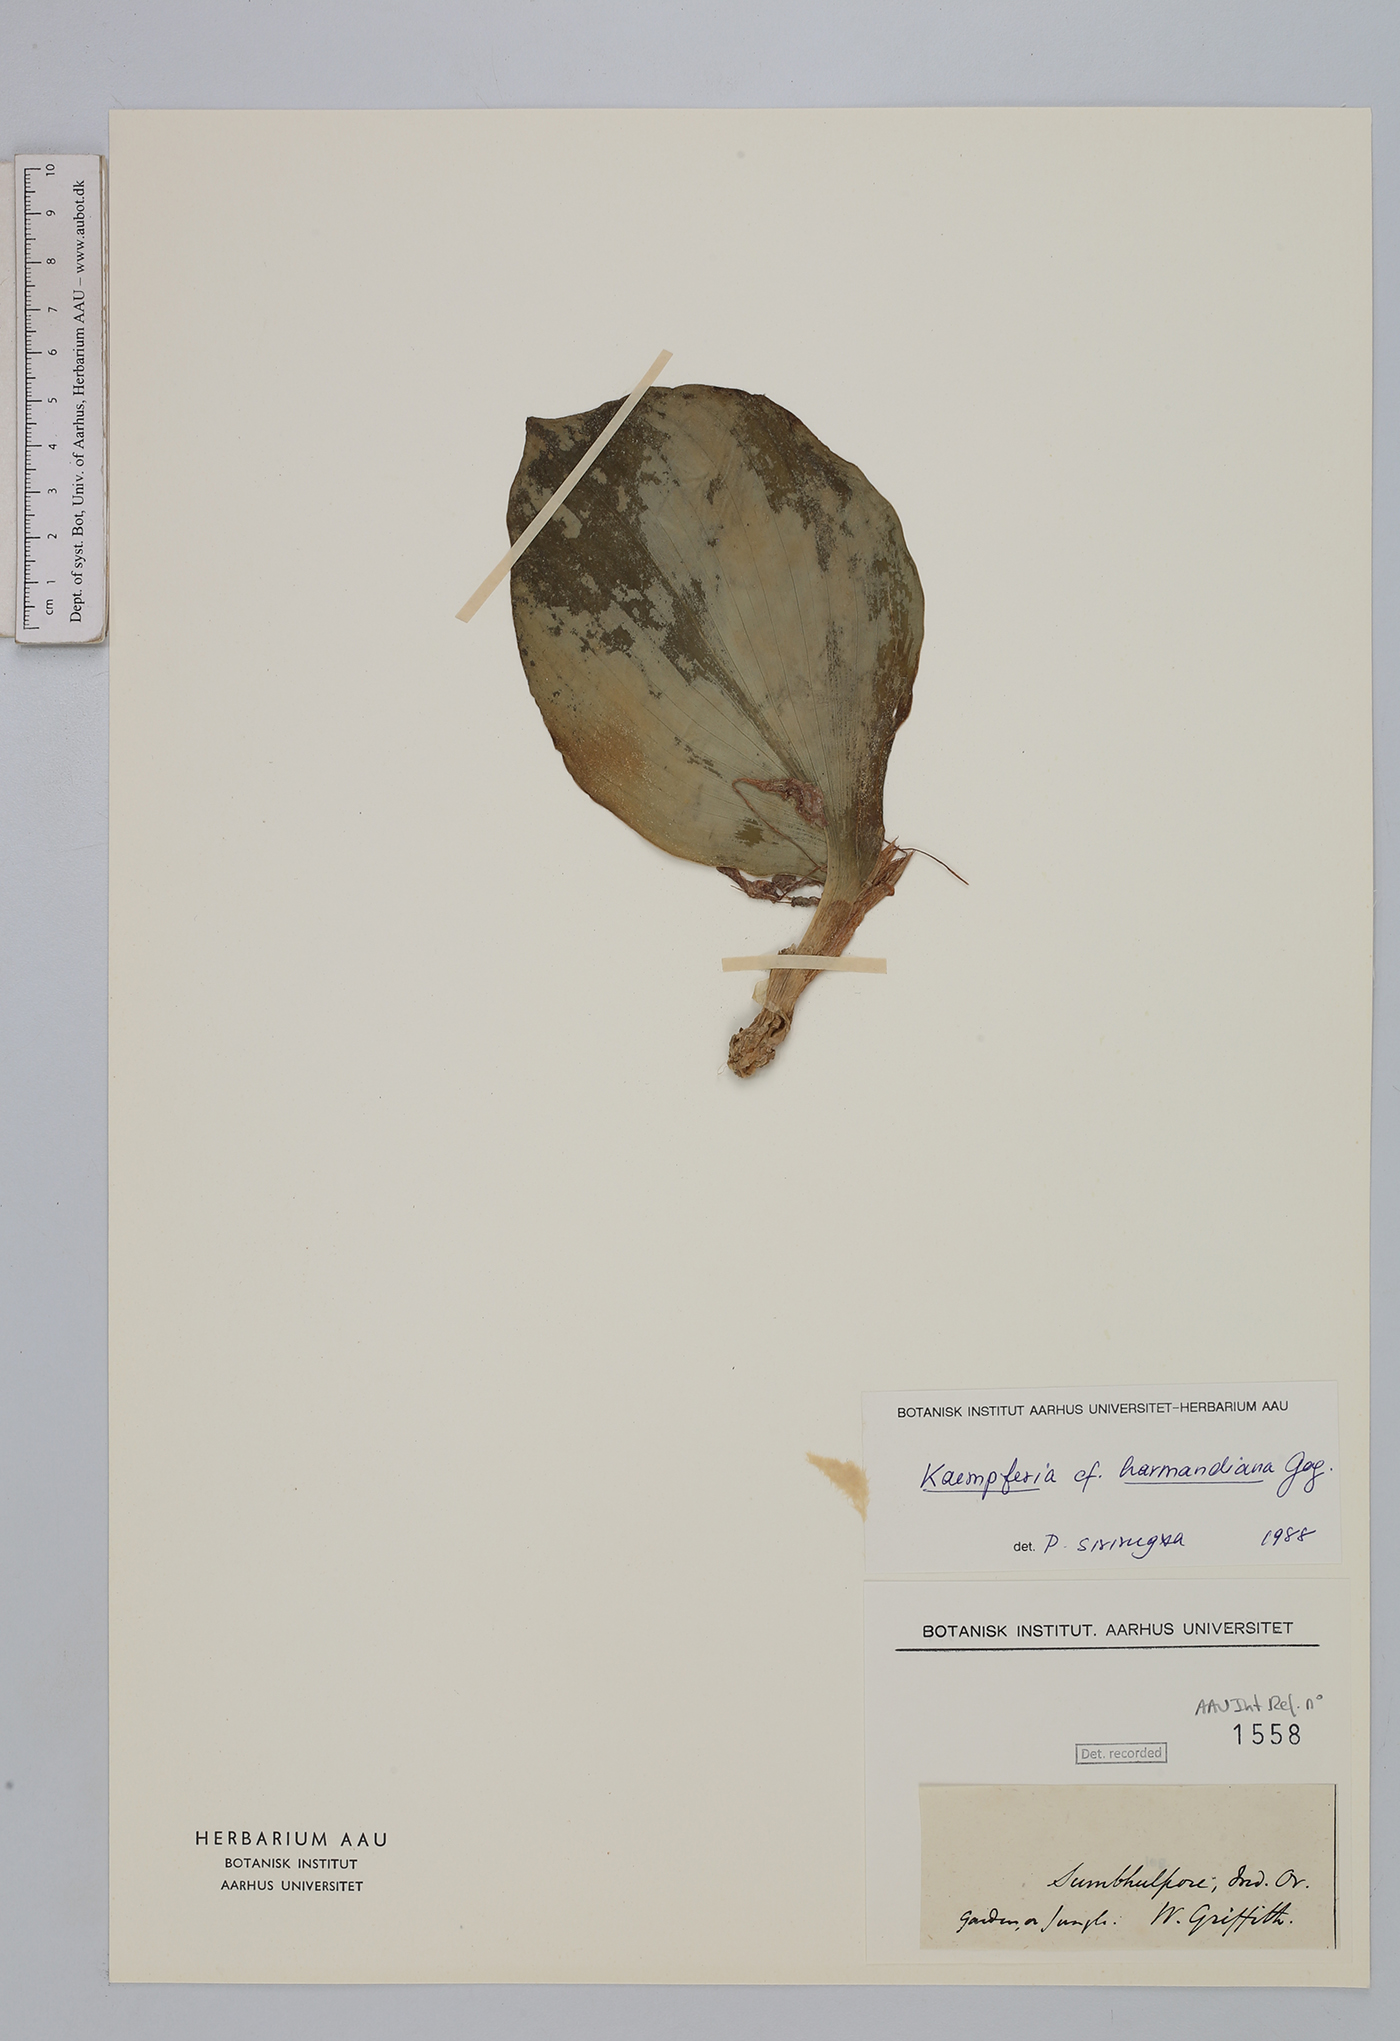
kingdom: Plantae
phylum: Tracheophyta
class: Liliopsida
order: Zingiberales
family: Zingiberaceae
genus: Kaempferia
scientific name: Kaempferia harmandiana
